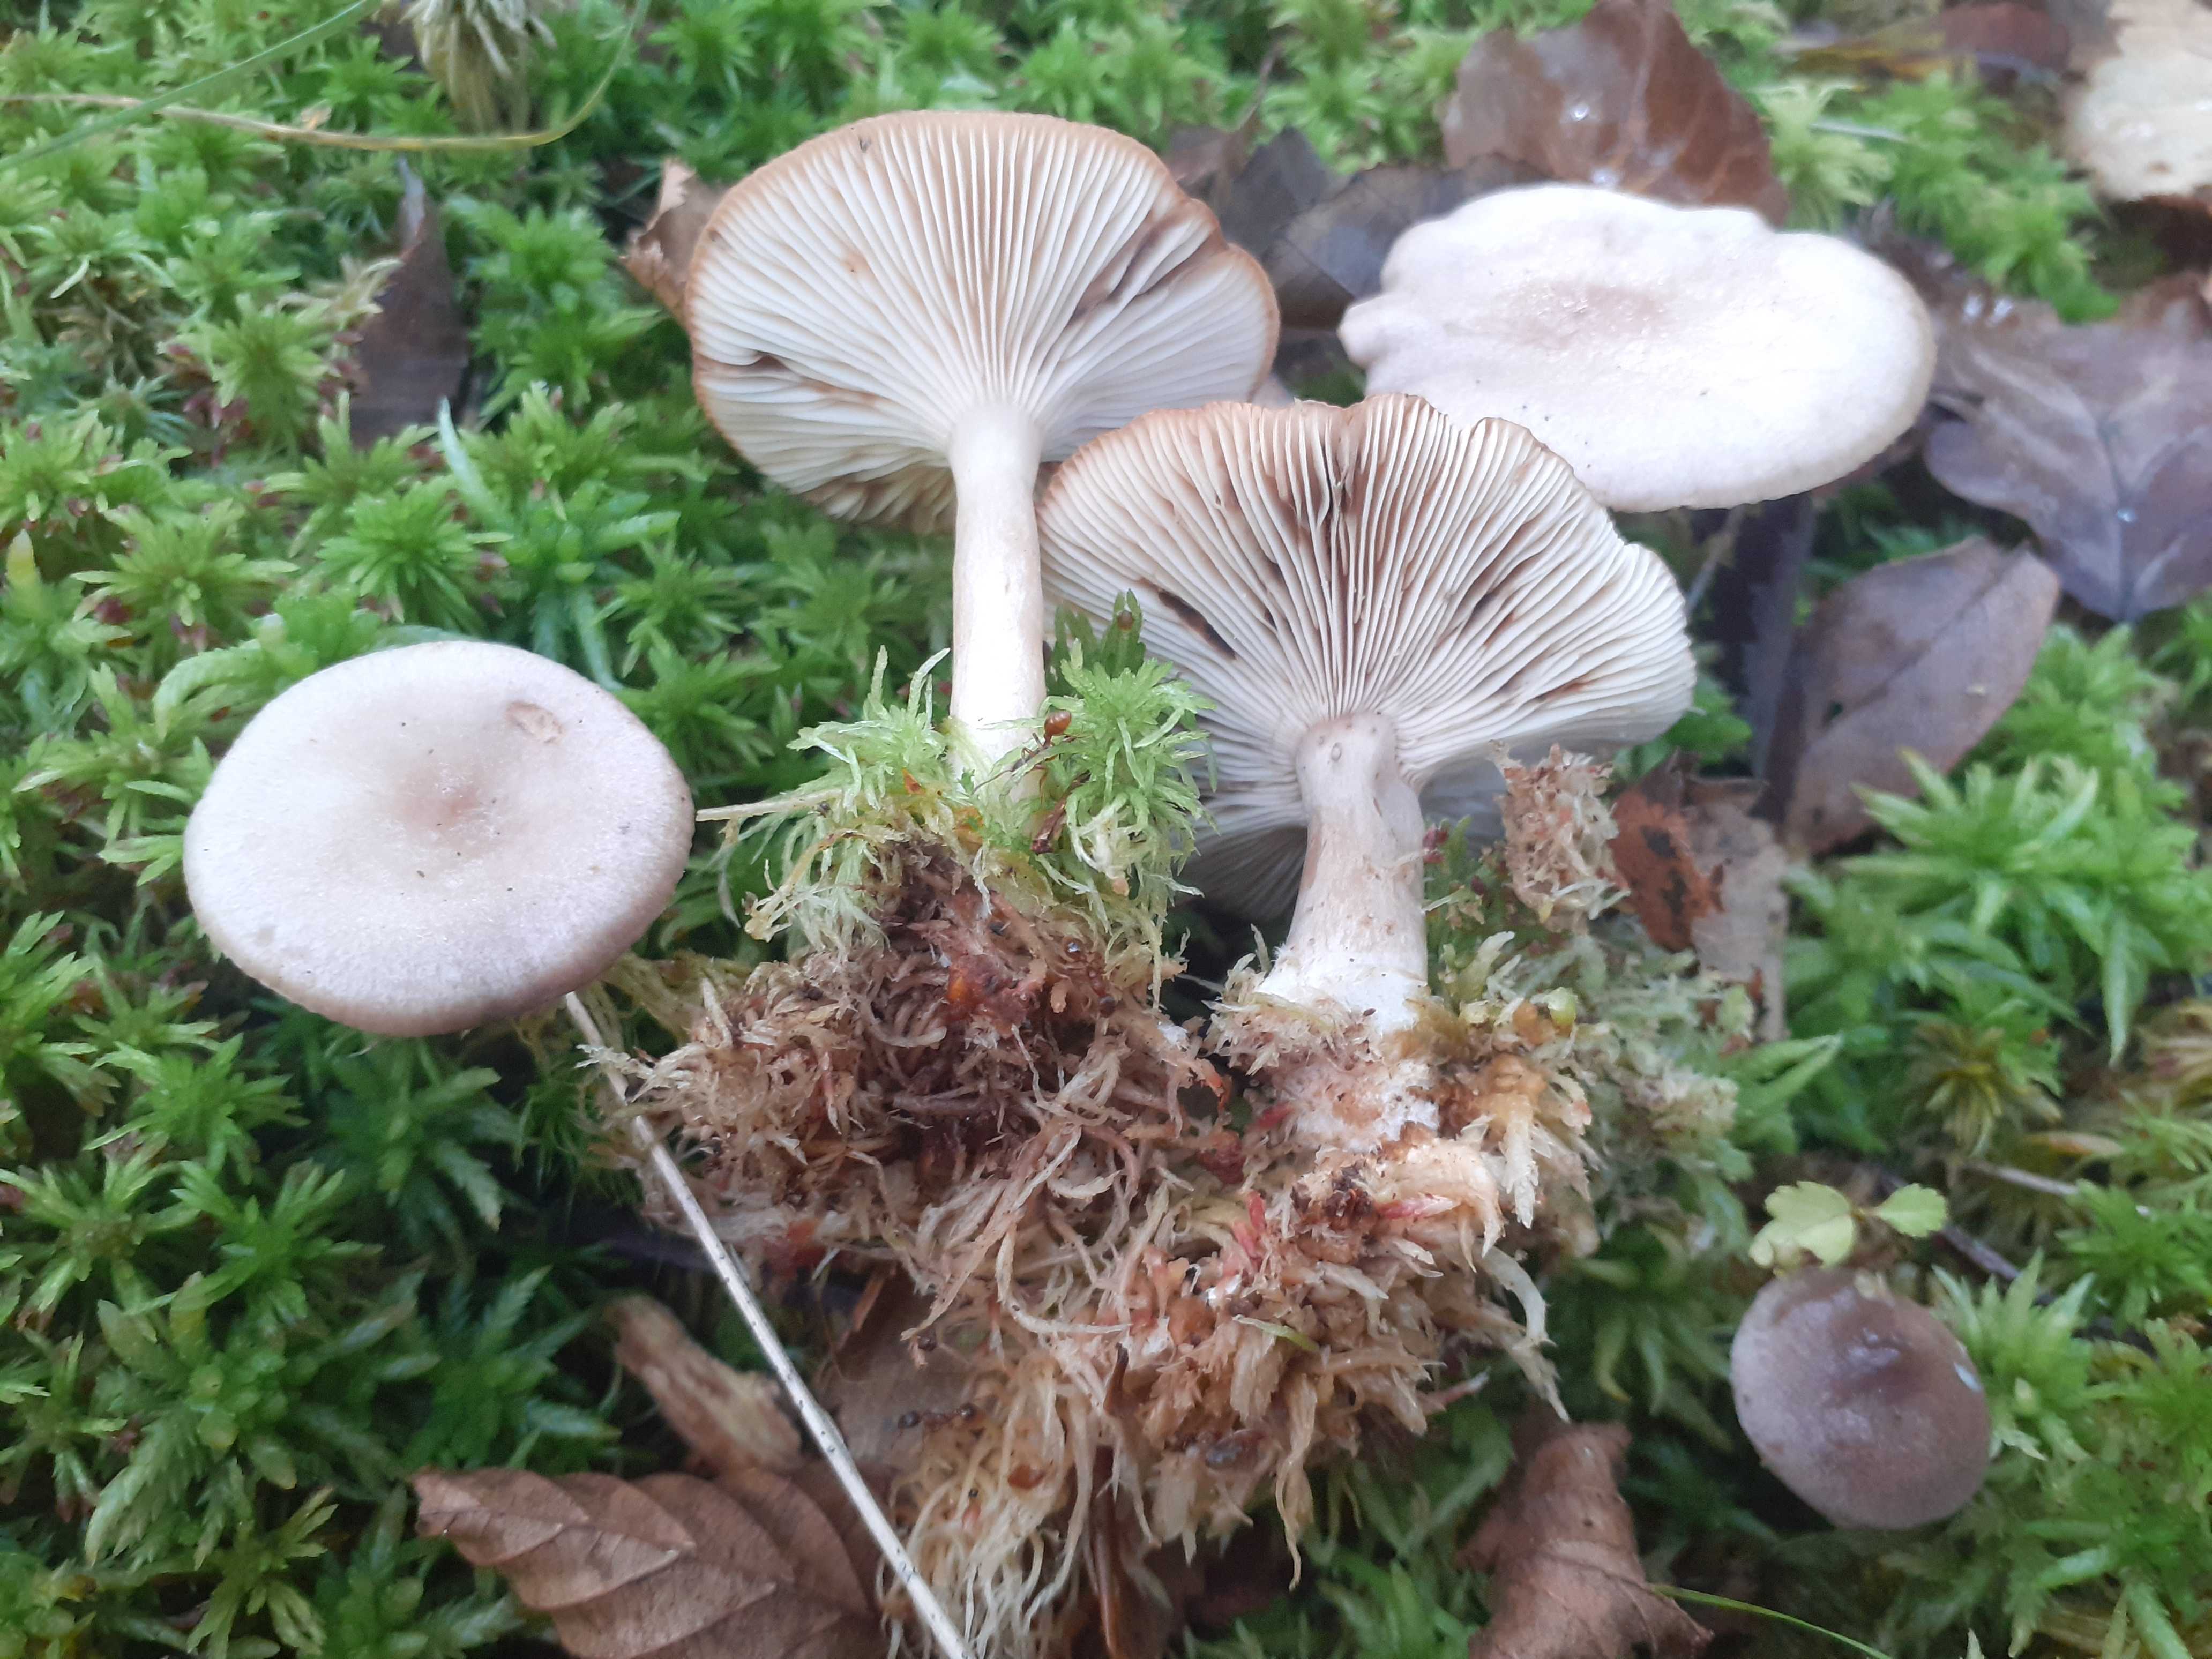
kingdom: Fungi
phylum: Basidiomycota
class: Agaricomycetes
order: Russulales
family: Russulaceae
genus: Lactarius
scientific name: Lactarius vietus
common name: violetgrå mælkehat
